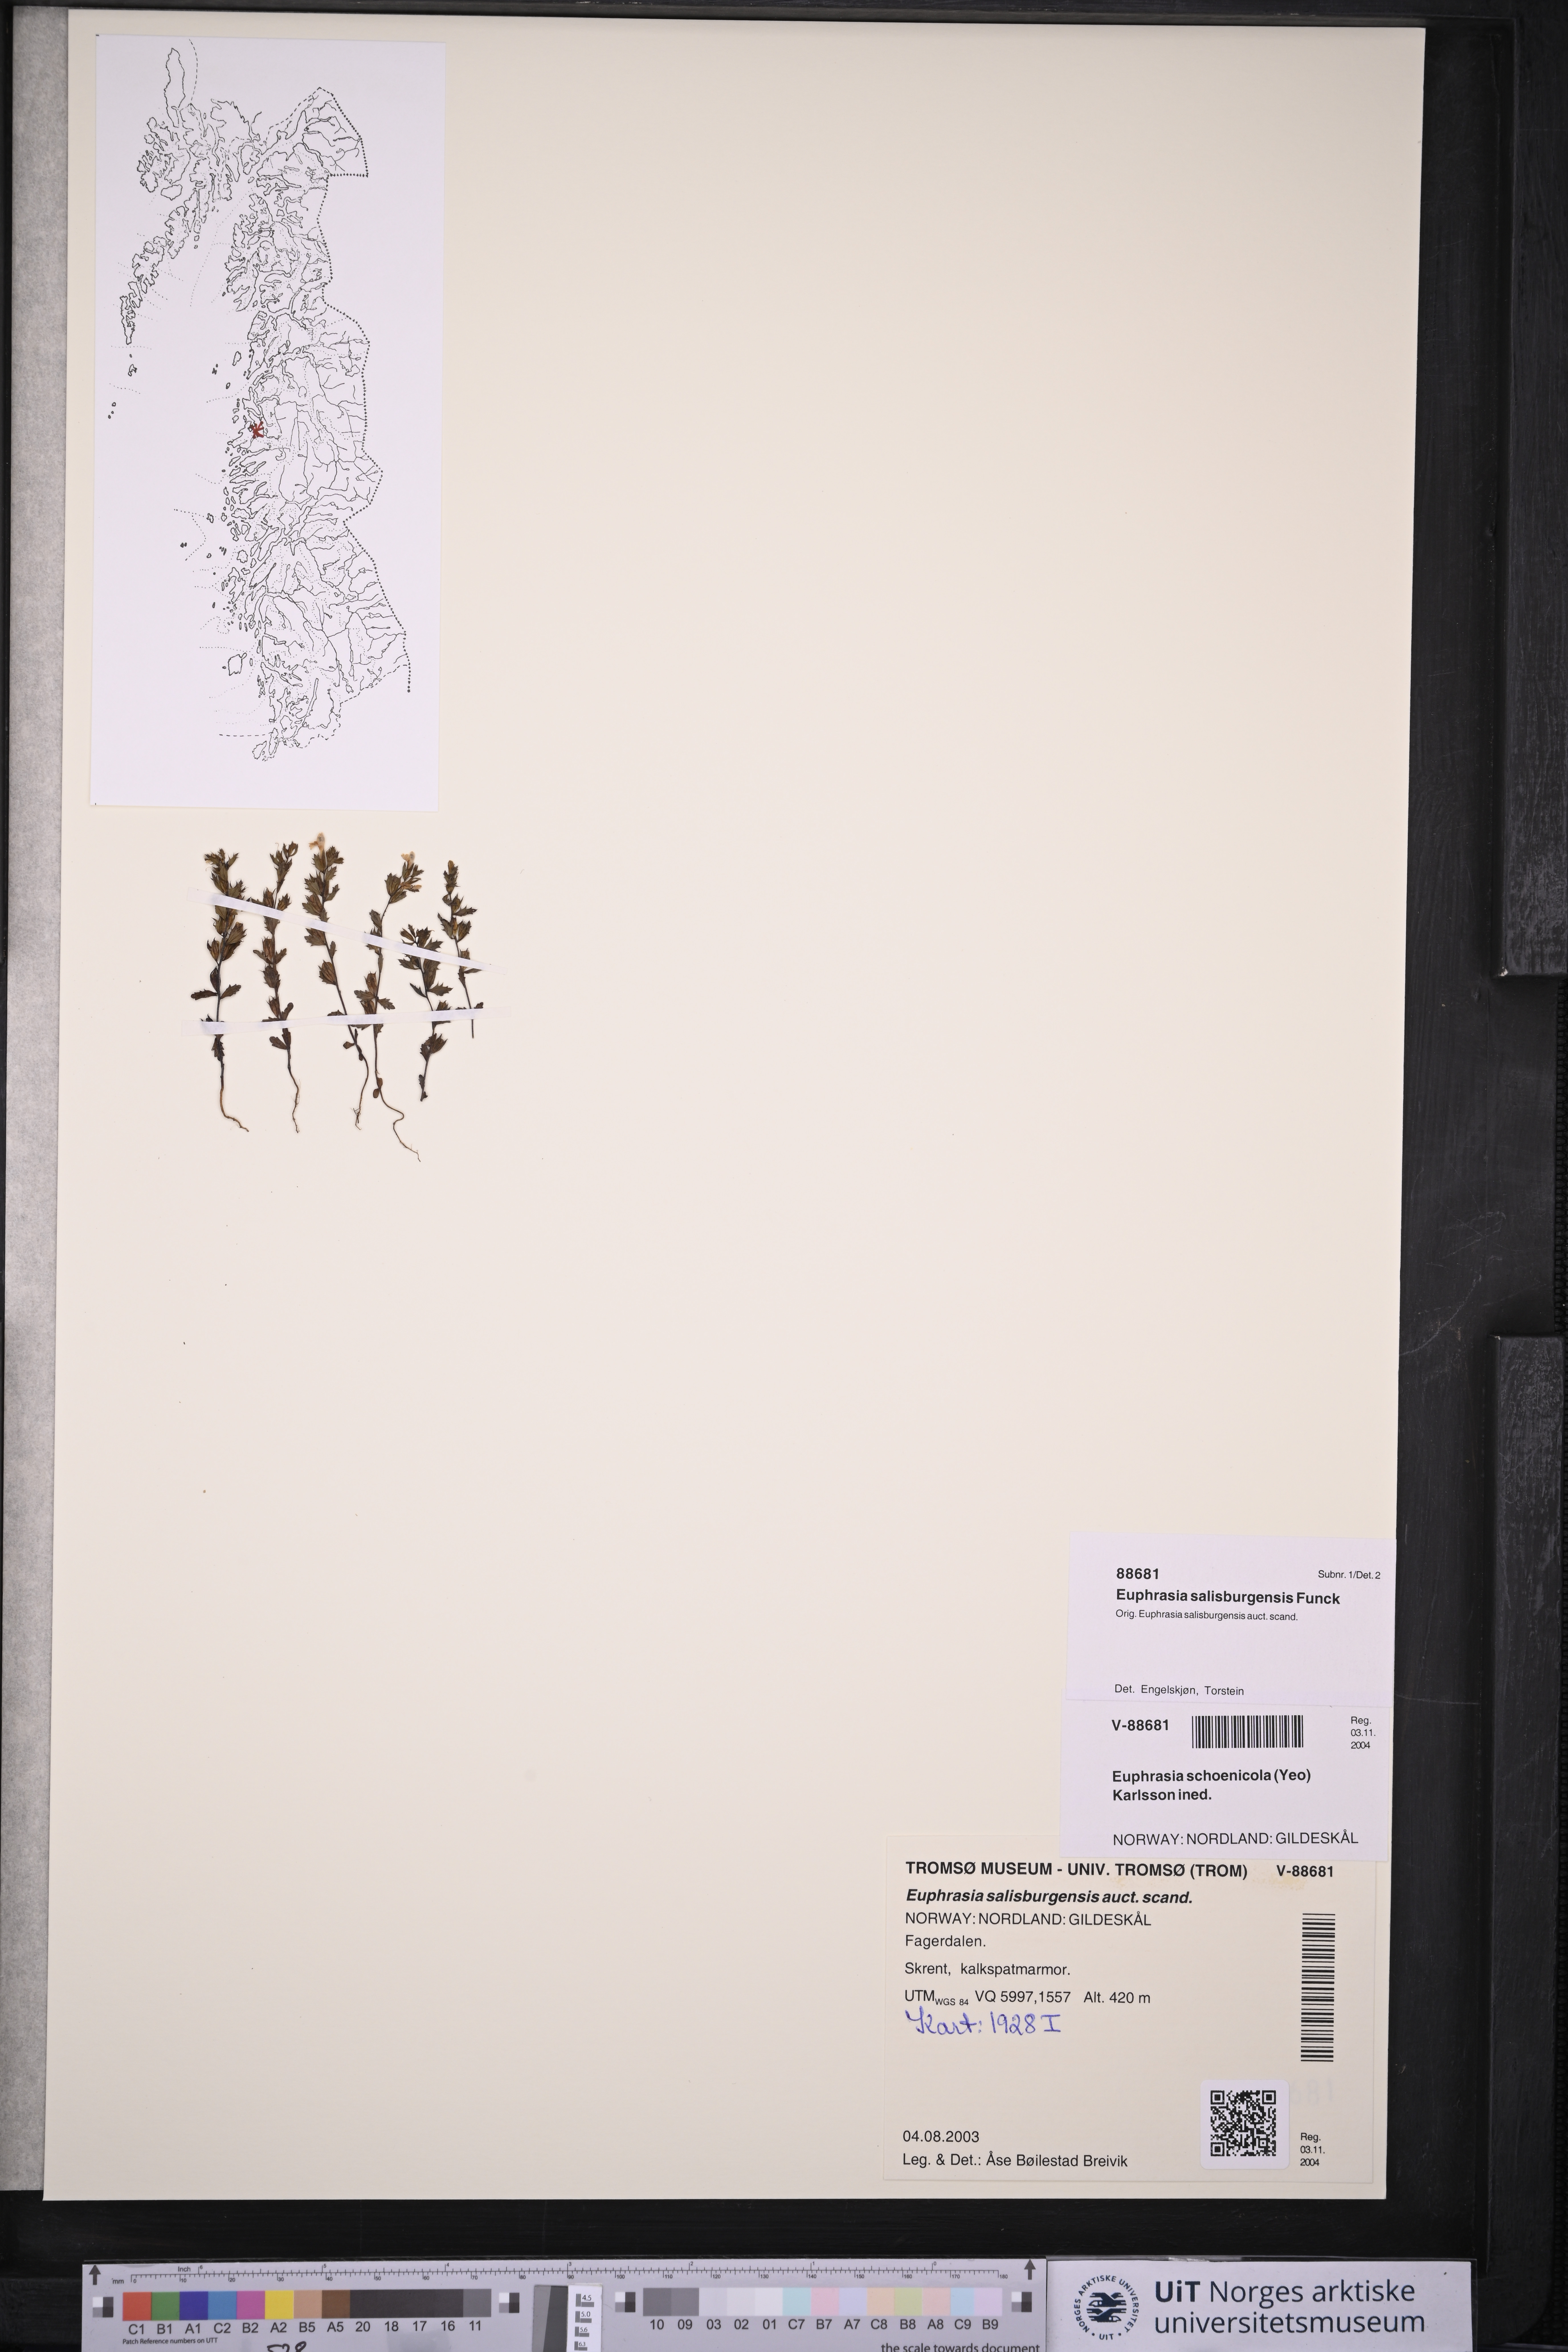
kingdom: Plantae
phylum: Tracheophyta
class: Magnoliopsida
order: Lamiales
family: Orobanchaceae
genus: Euphrasia
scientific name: Euphrasia salisburgensis
